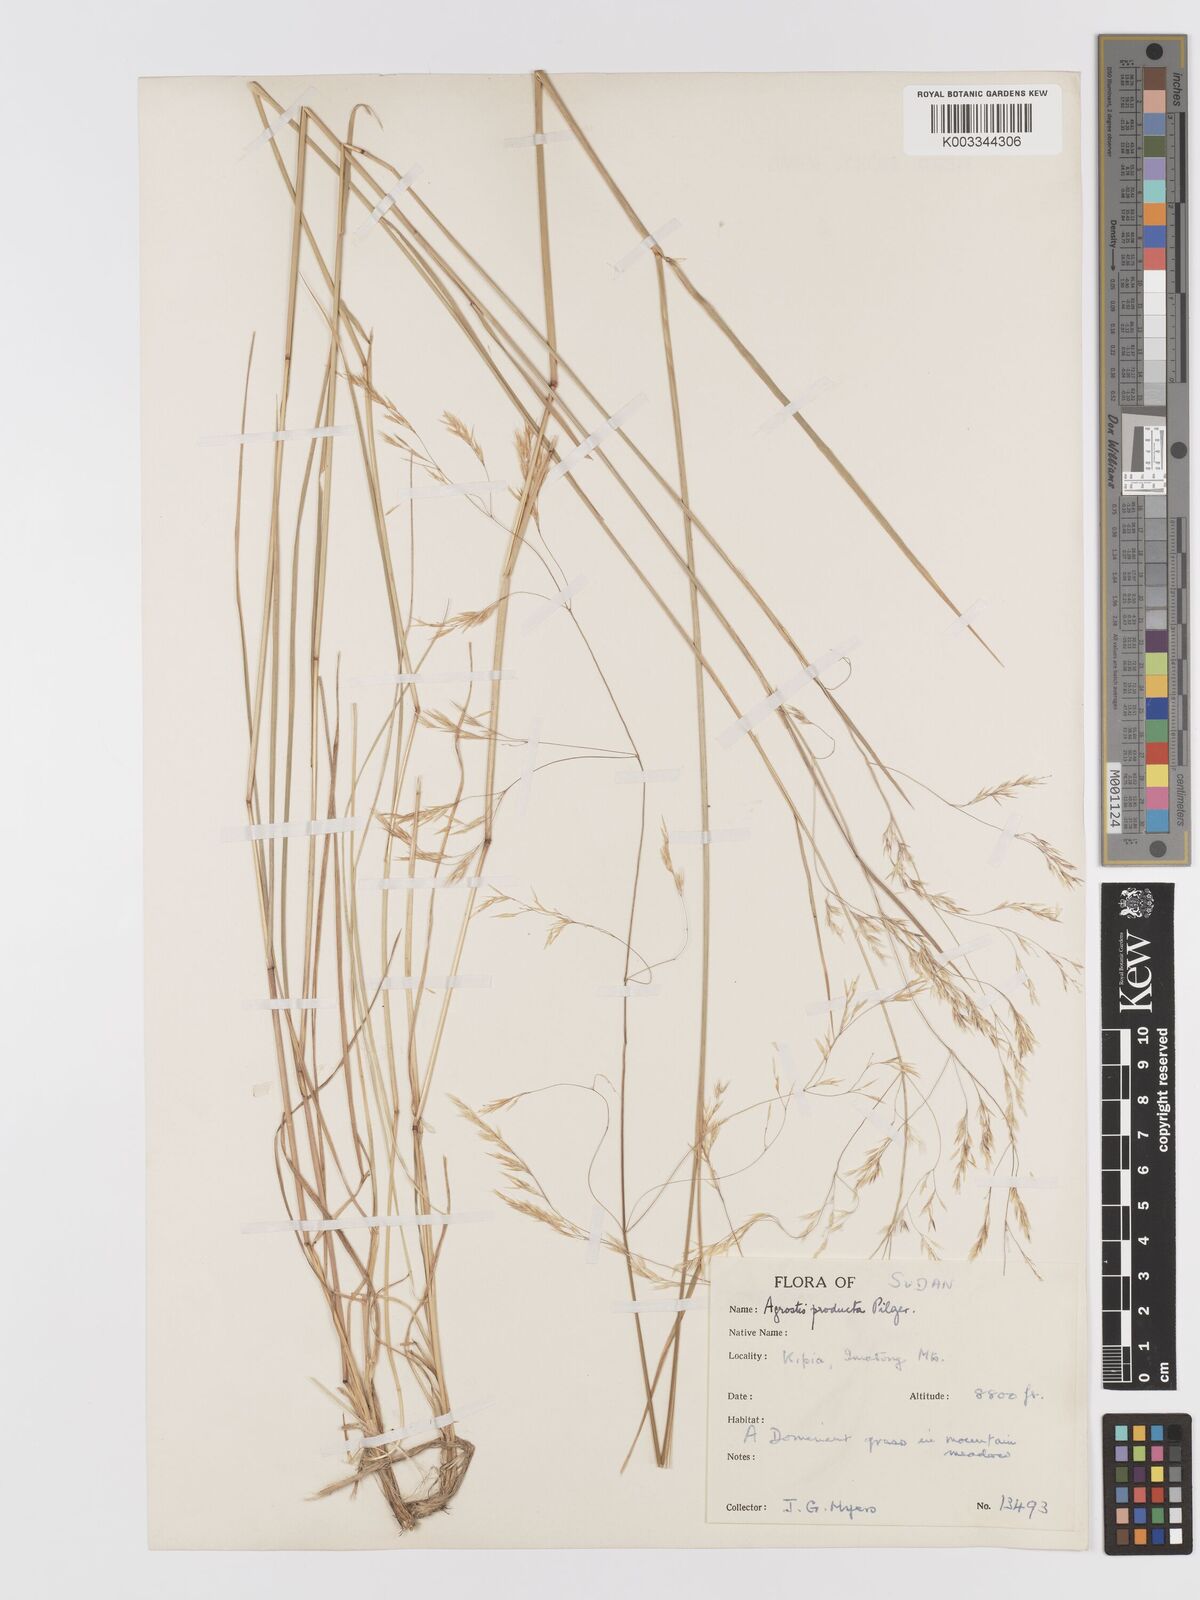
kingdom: Plantae
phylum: Tracheophyta
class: Liliopsida
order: Poales
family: Poaceae
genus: Agrostis
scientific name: Agrostis producta
